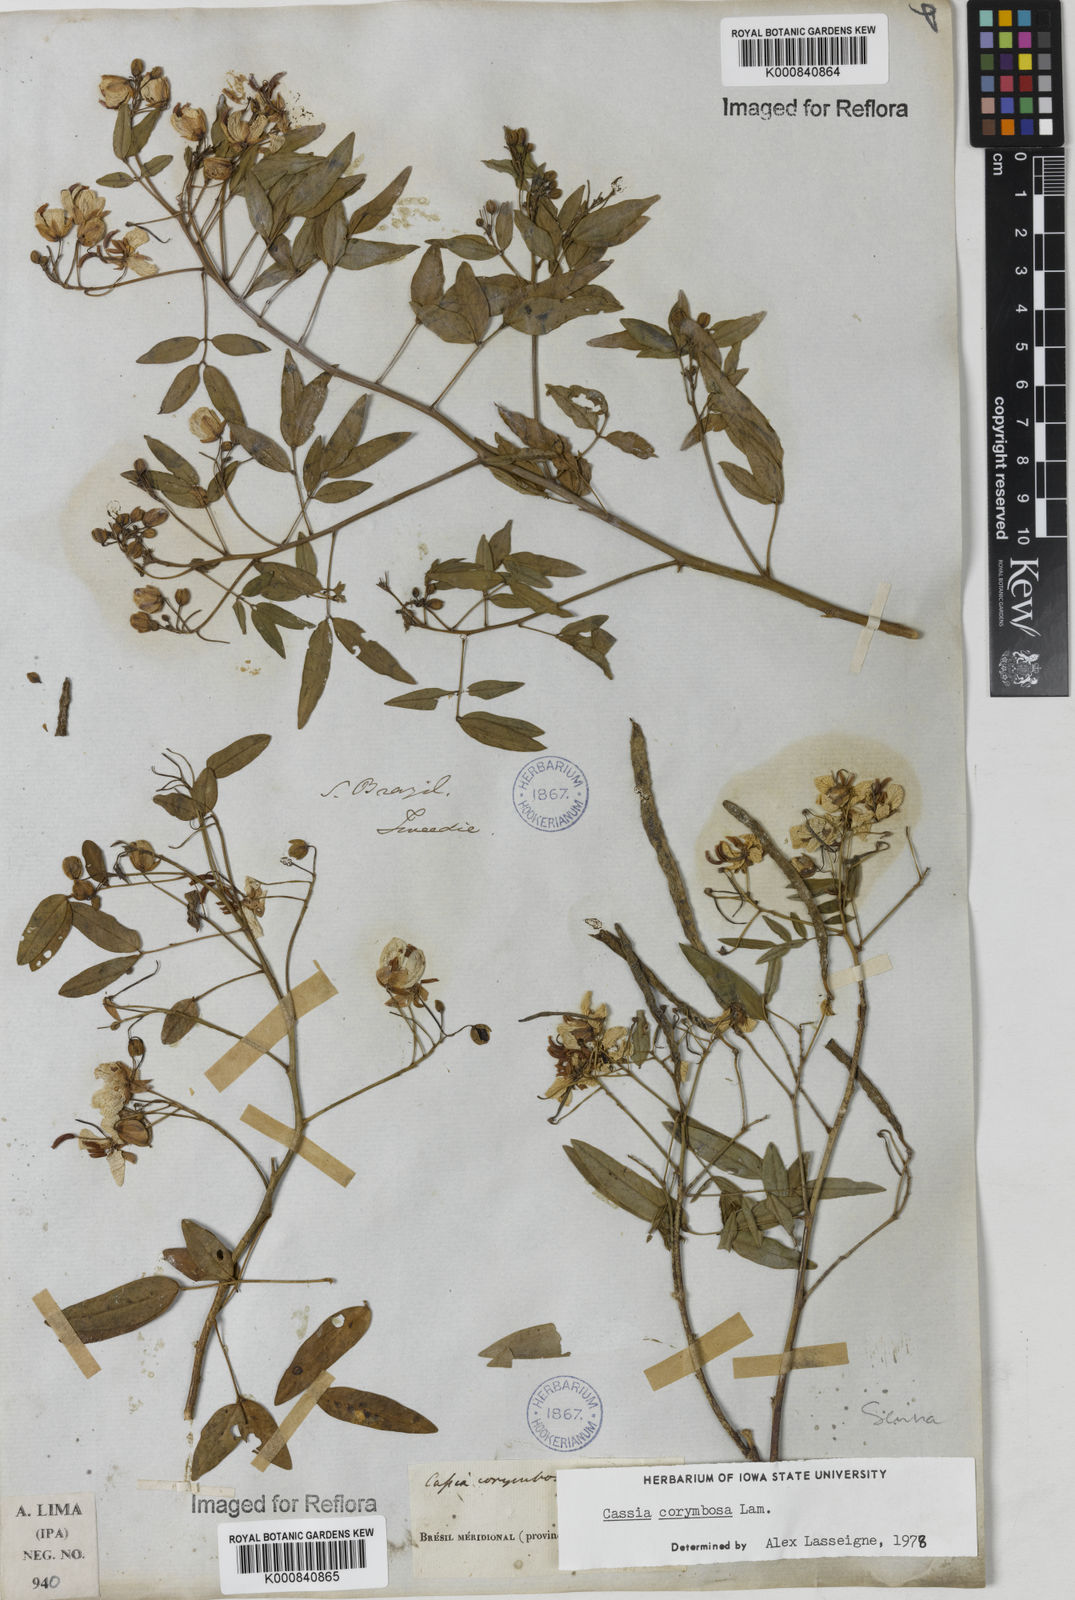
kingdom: Plantae
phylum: Tracheophyta
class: Magnoliopsida
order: Fabales
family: Fabaceae
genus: Senna
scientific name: Senna corymbosa
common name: Argentine senna
